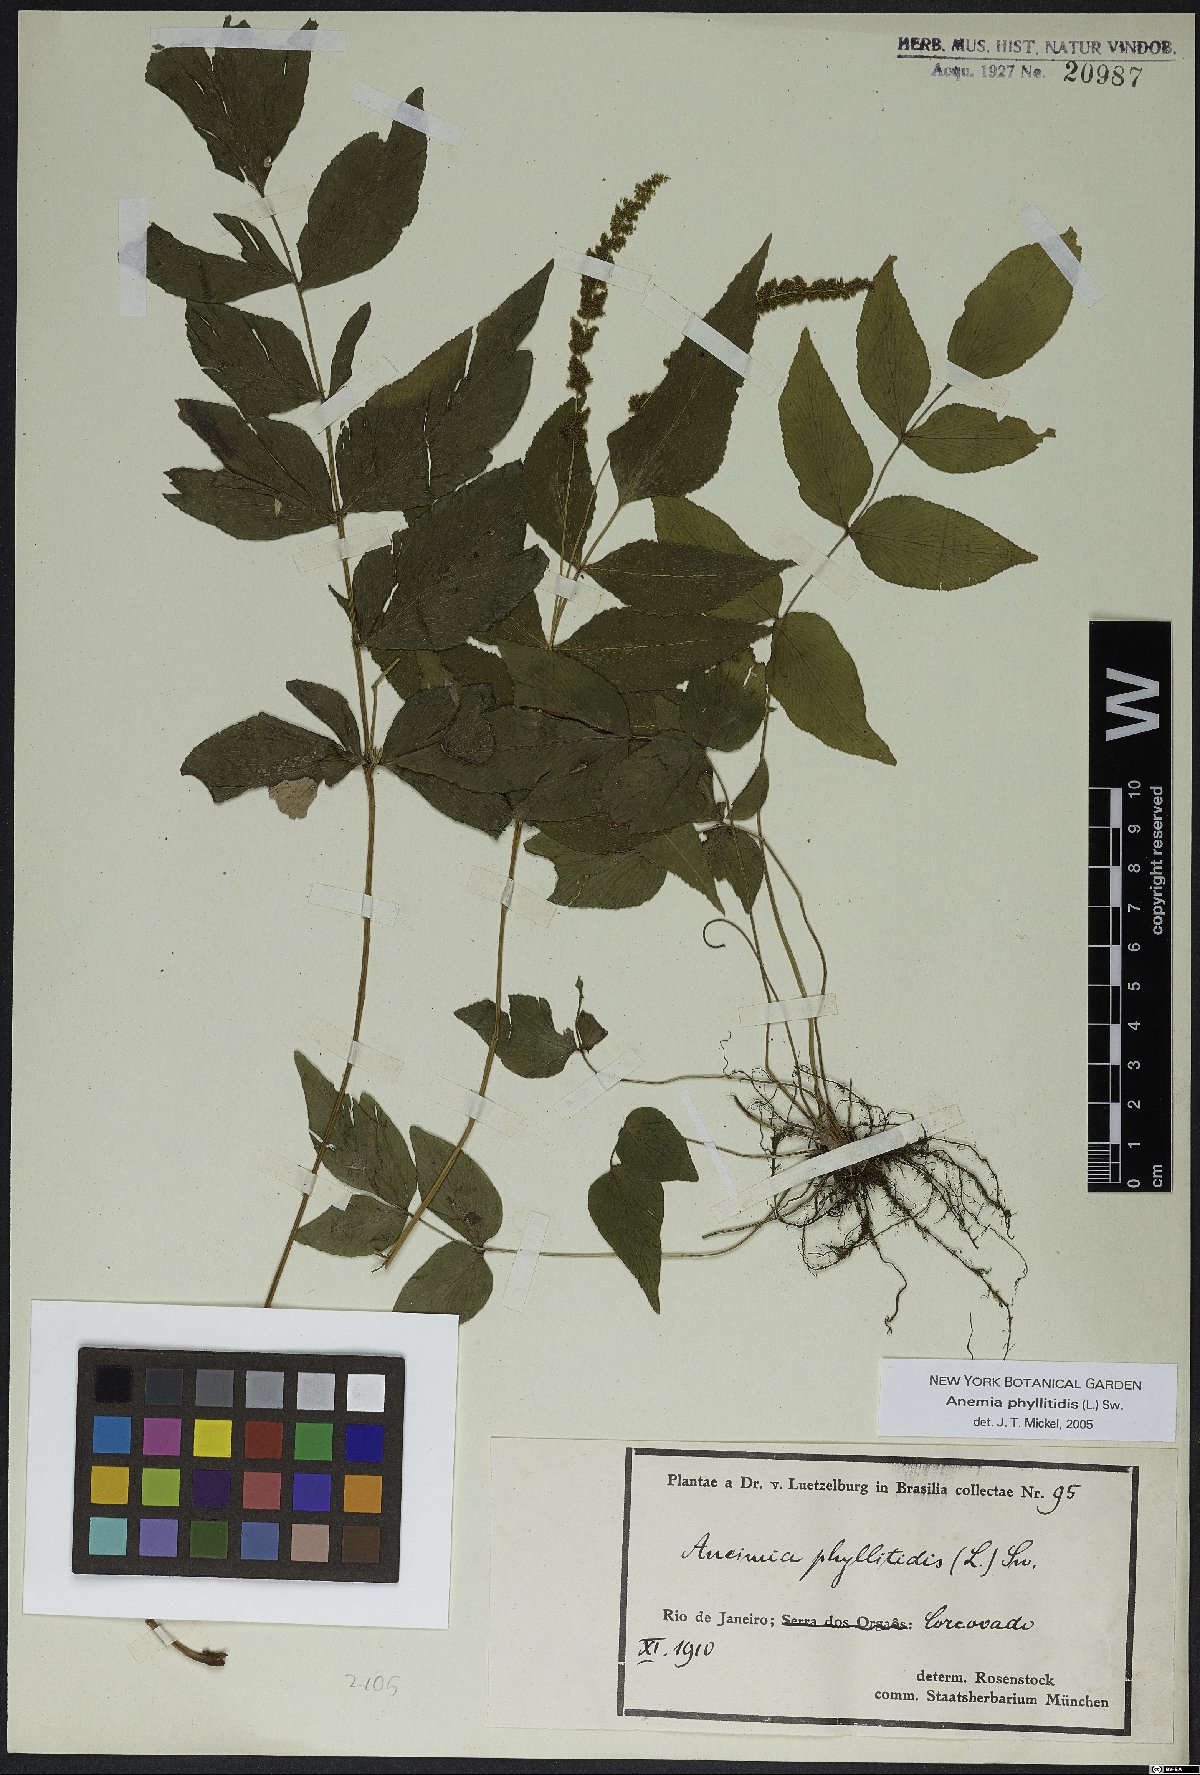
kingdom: Plantae
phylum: Tracheophyta
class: Polypodiopsida
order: Schizaeales
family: Anemiaceae
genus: Anemia
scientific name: Anemia phyllitidis
